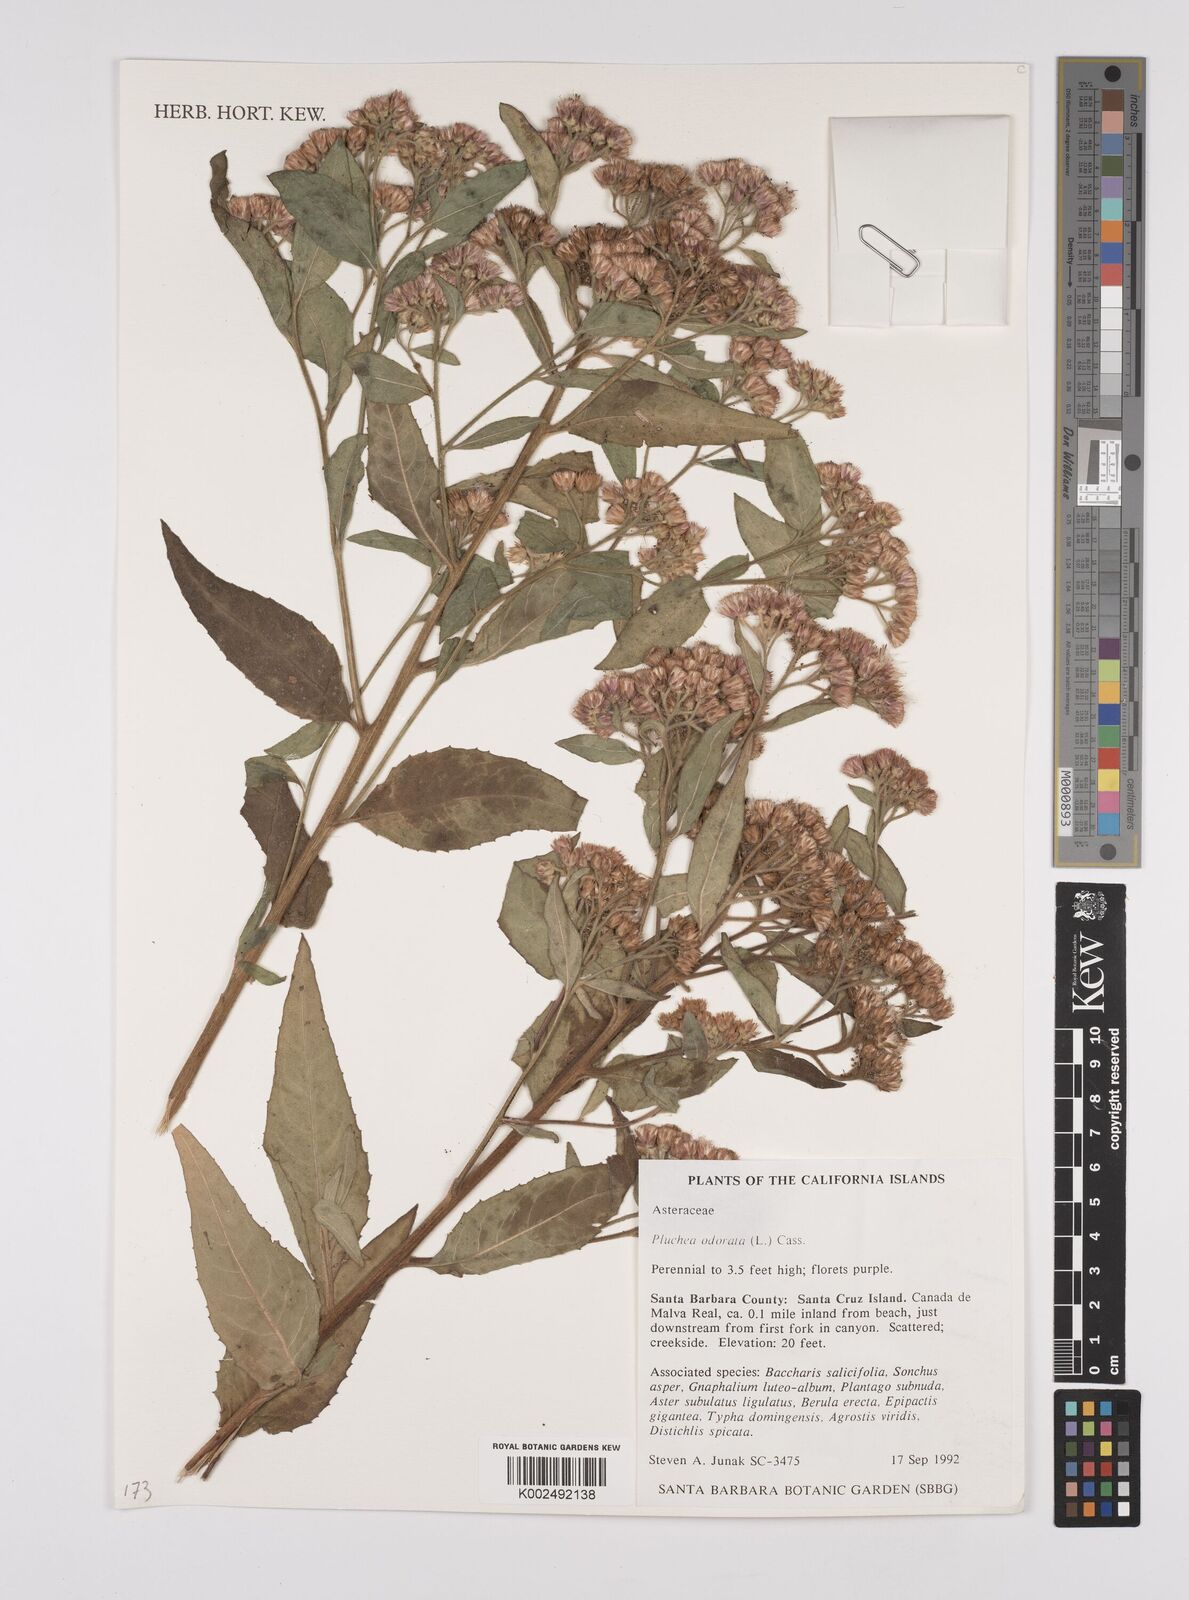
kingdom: Plantae
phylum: Tracheophyta
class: Magnoliopsida
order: Asterales
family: Asteraceae
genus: Pluchea
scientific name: Pluchea odorata
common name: Saltmarsh fleabane
